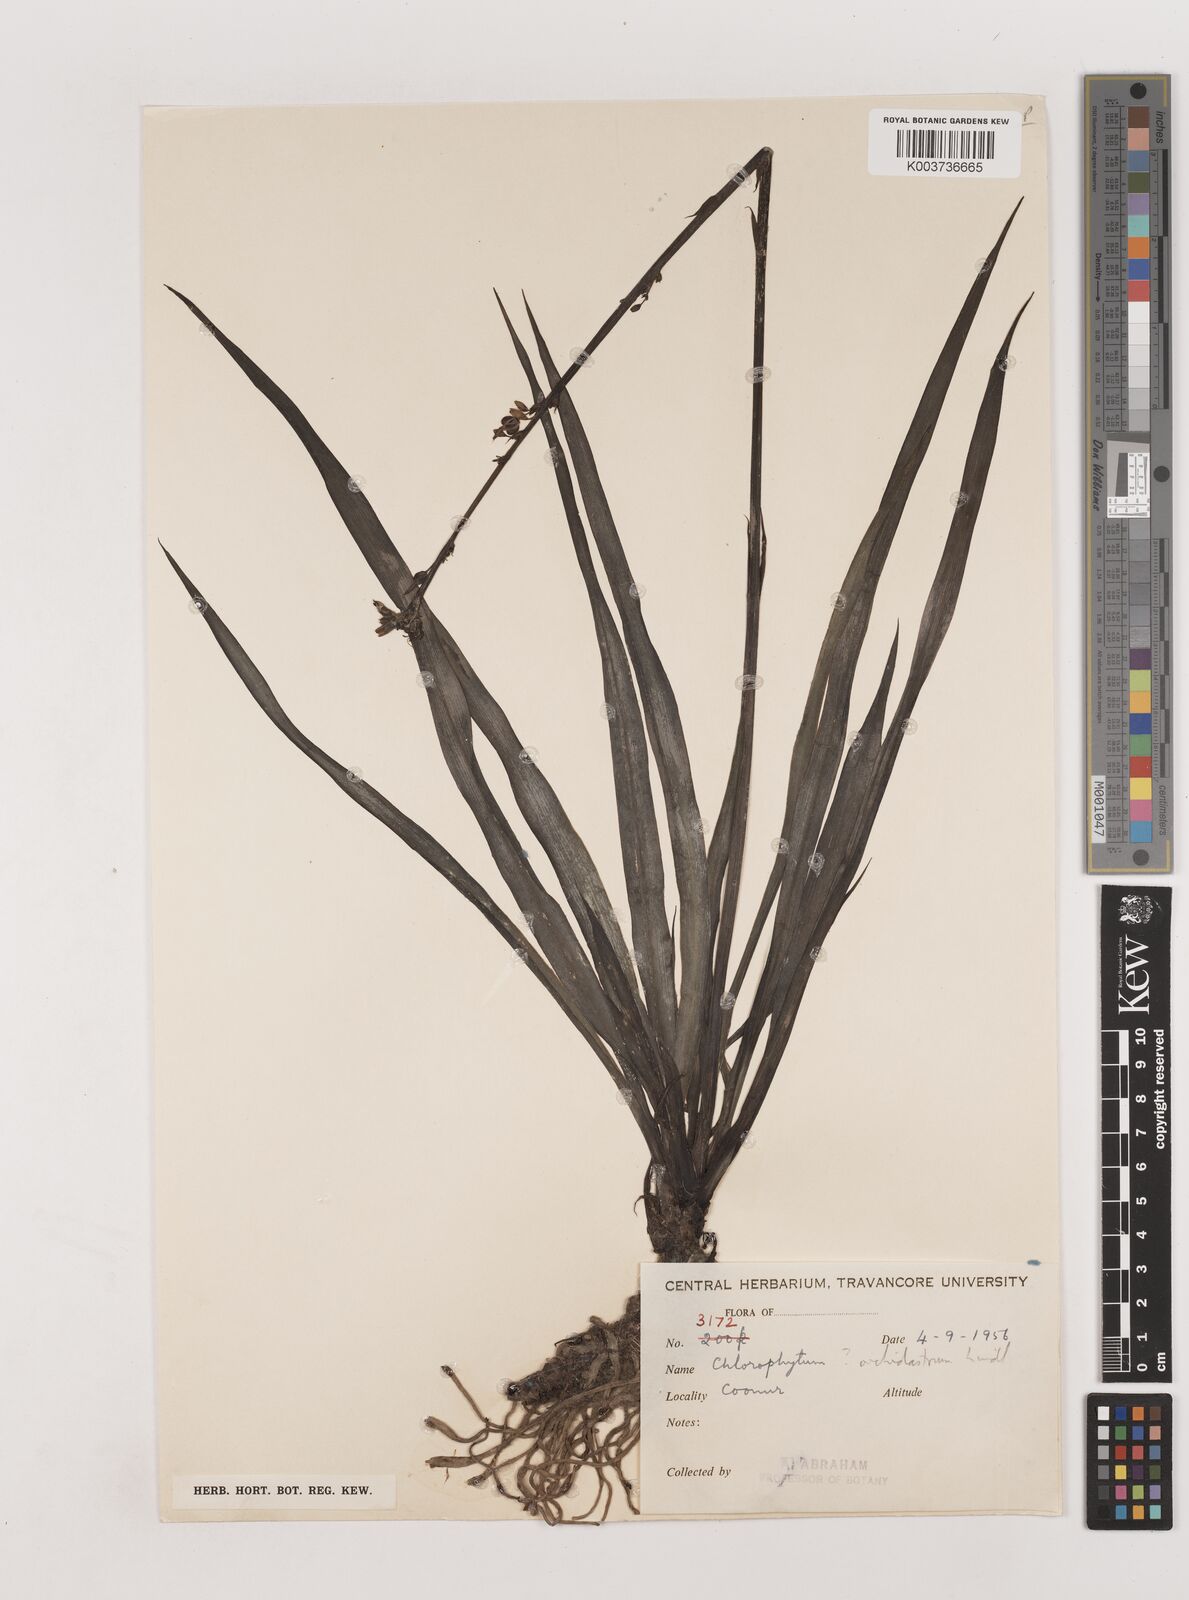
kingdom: Plantae
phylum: Tracheophyta
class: Liliopsida
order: Asparagales
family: Asparagaceae
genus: Chlorophytum
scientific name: Chlorophytum comosum
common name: Spider plant
